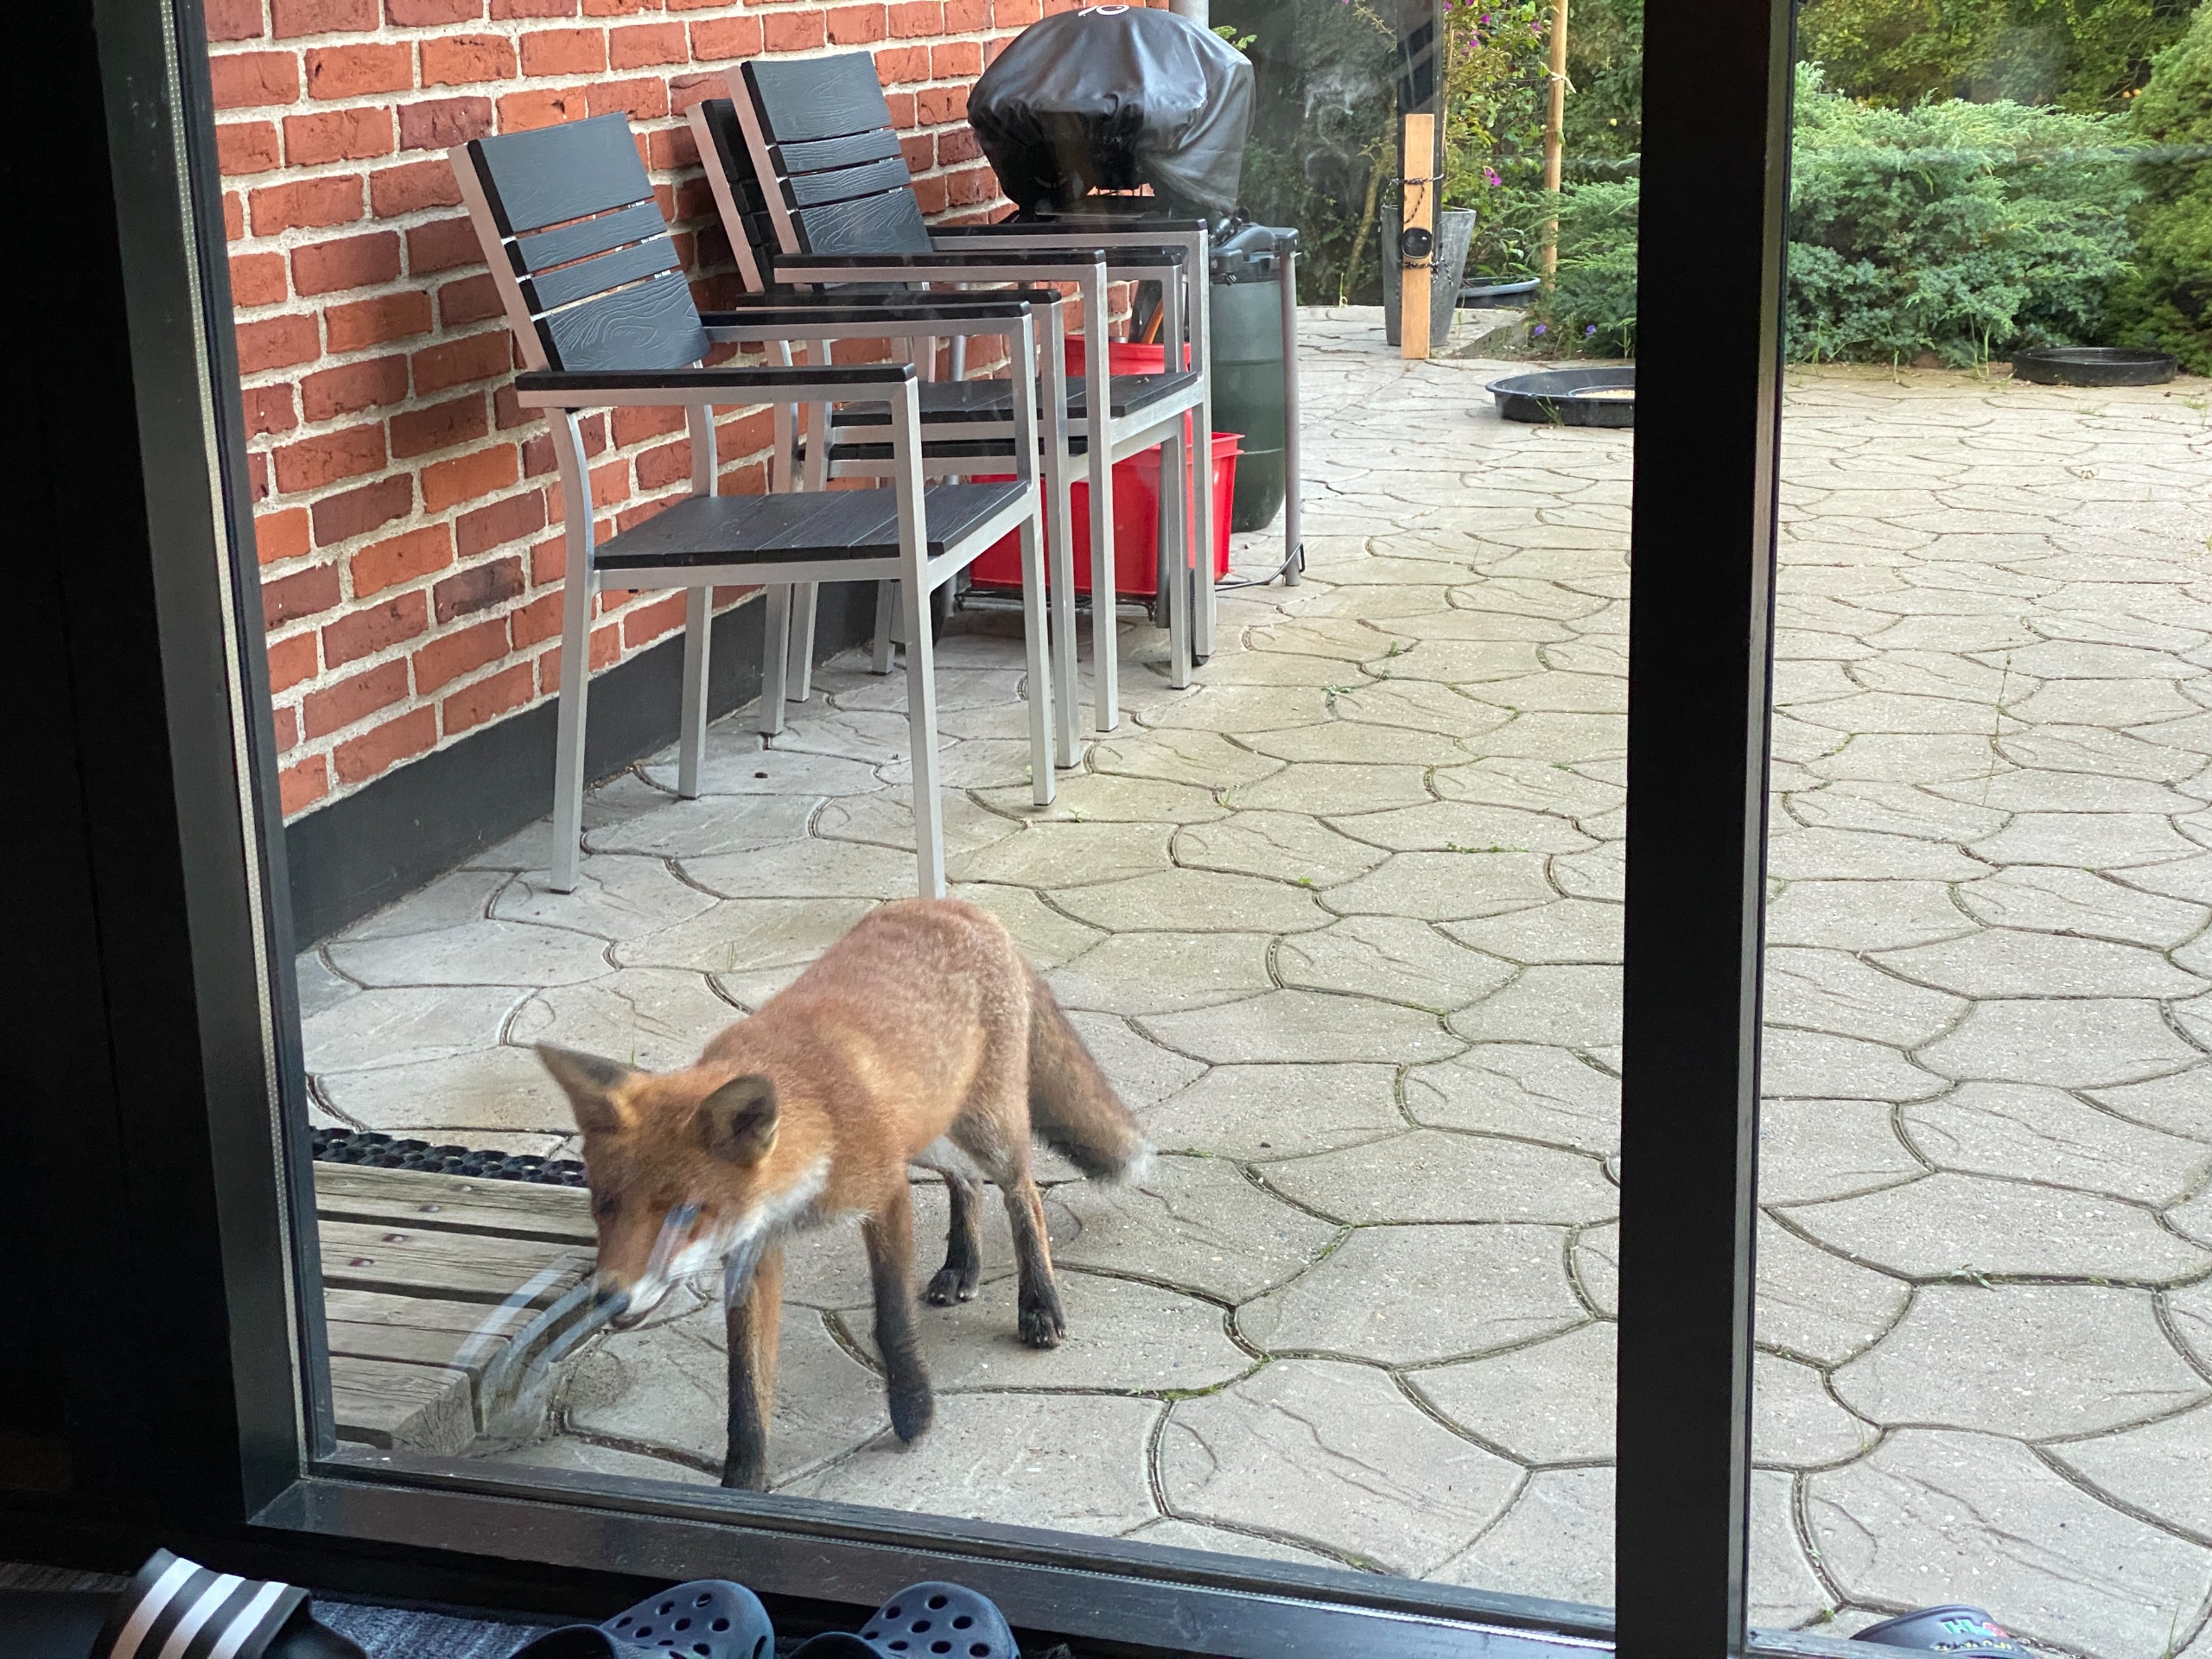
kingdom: Animalia
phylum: Chordata
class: Mammalia
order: Carnivora
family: Canidae
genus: Vulpes
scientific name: Vulpes vulpes
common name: Ræv
